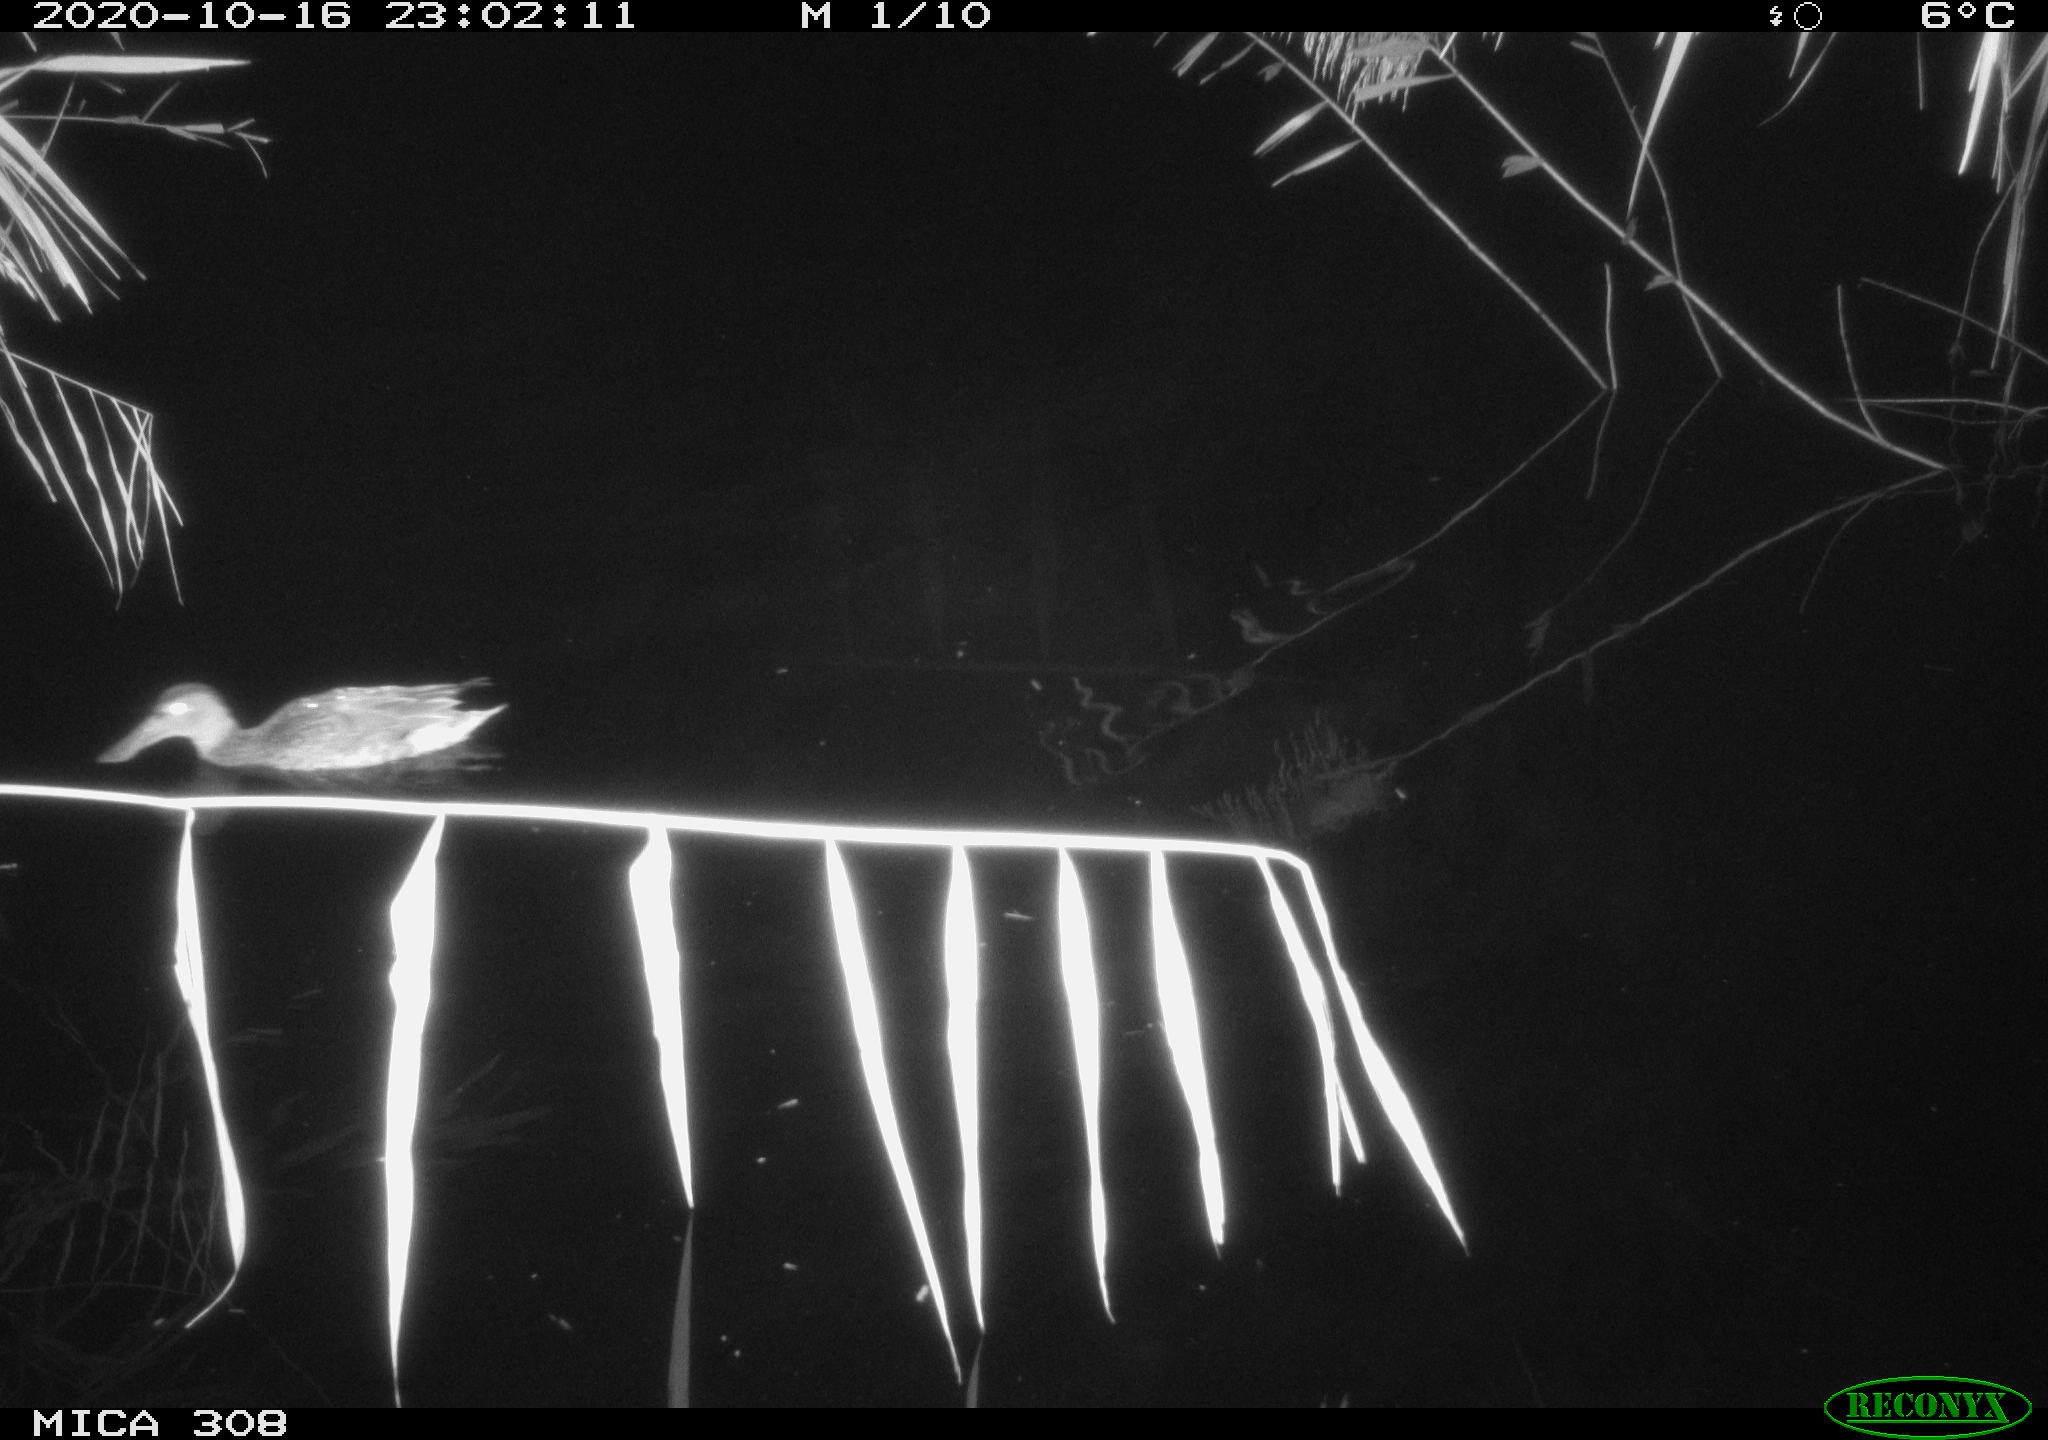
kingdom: Animalia
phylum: Chordata
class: Aves
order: Anseriformes
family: Anatidae
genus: Anas
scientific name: Anas platyrhynchos
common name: Mallard
